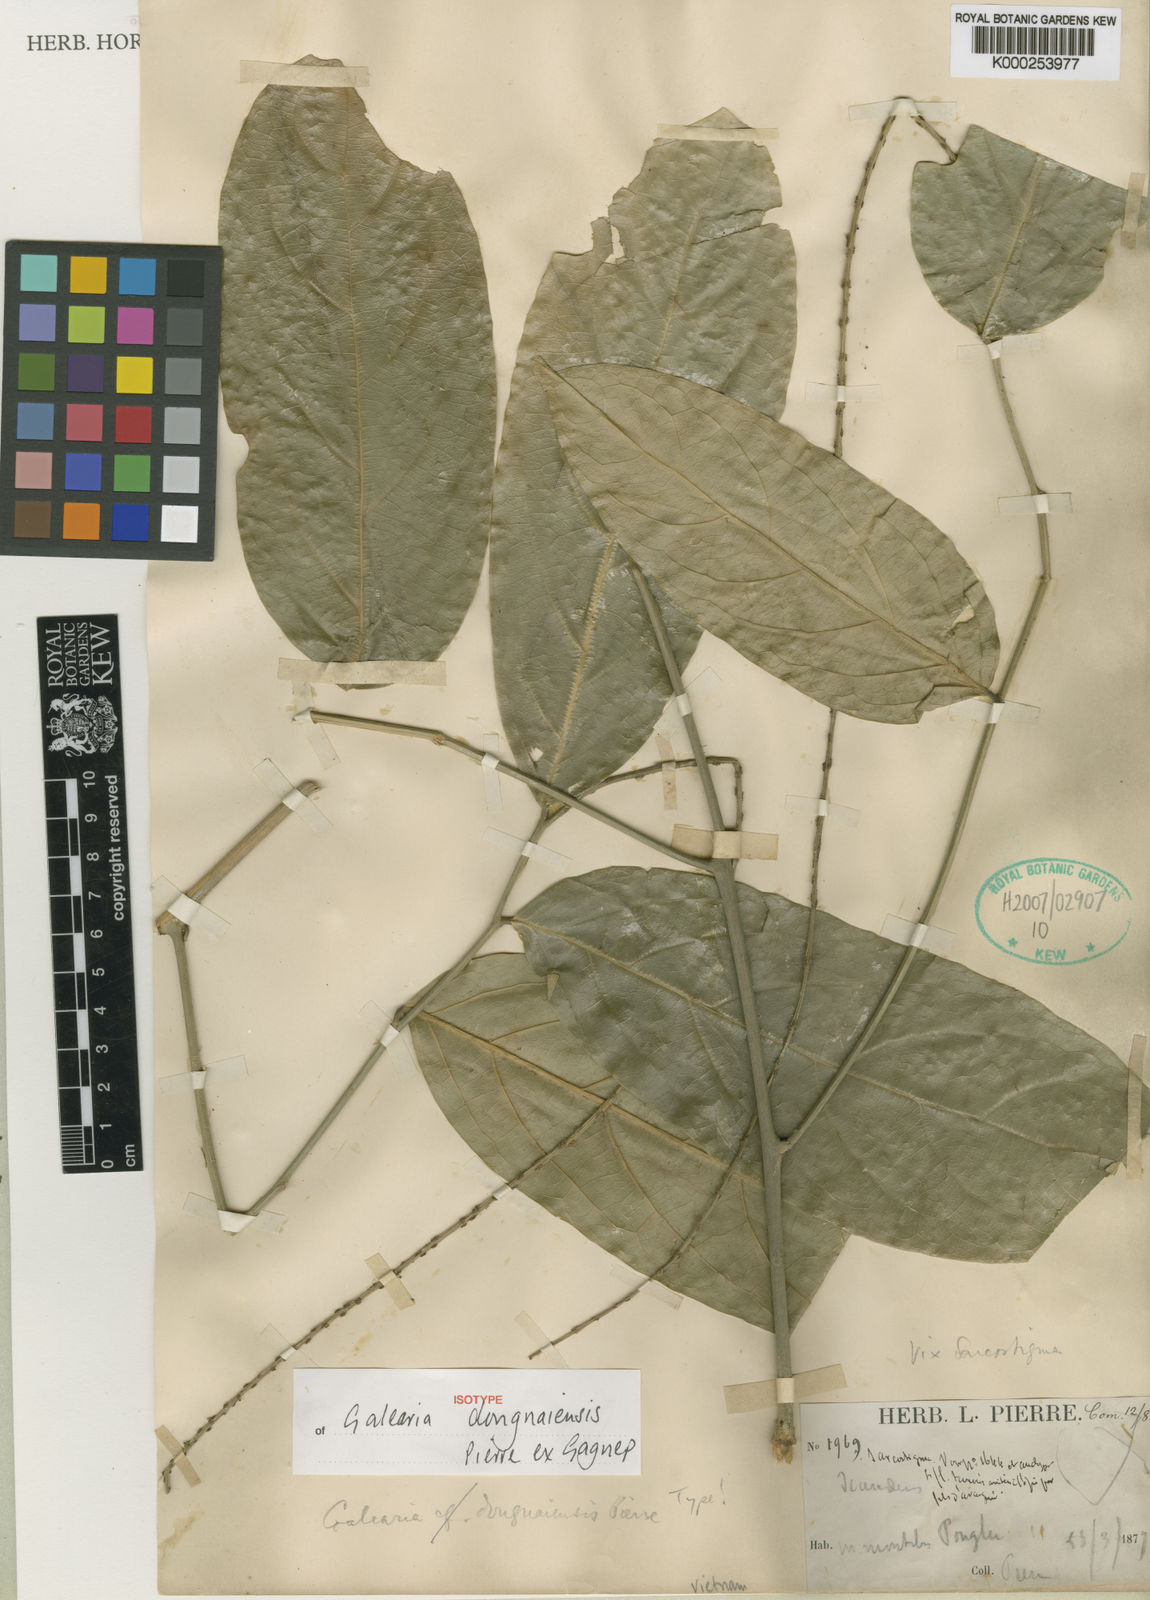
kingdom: Plantae
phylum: Tracheophyta
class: Magnoliopsida
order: Malpighiales
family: Pandaceae
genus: Galearia
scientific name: Galearia fulva
